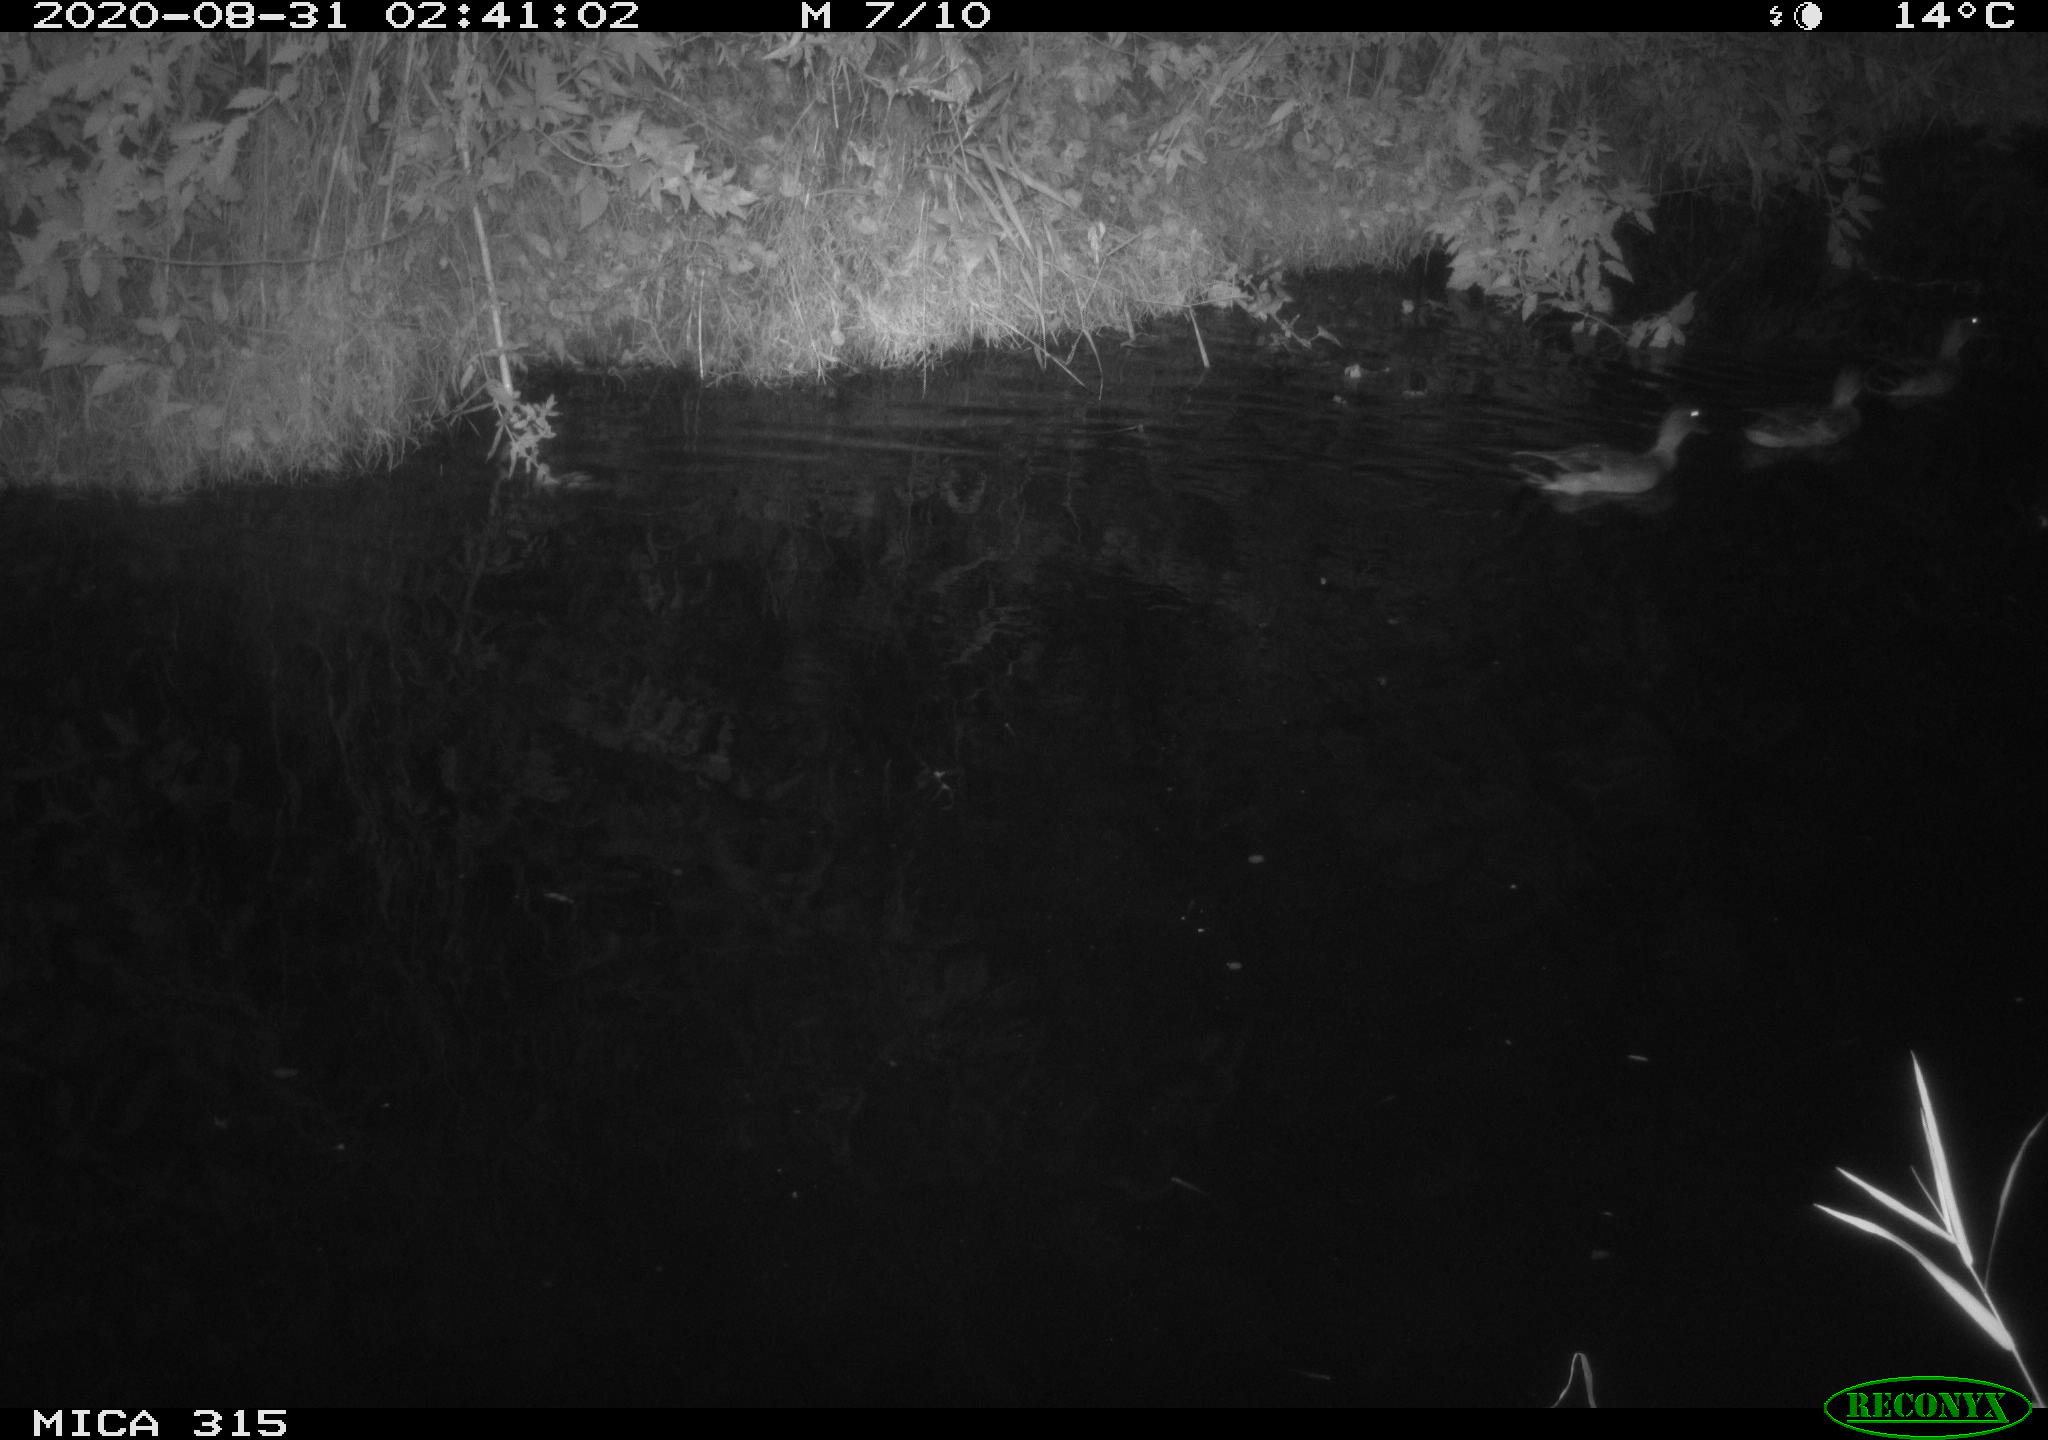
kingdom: Animalia
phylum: Chordata
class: Aves
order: Anseriformes
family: Anatidae
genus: Anas
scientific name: Anas platyrhynchos
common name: Mallard
